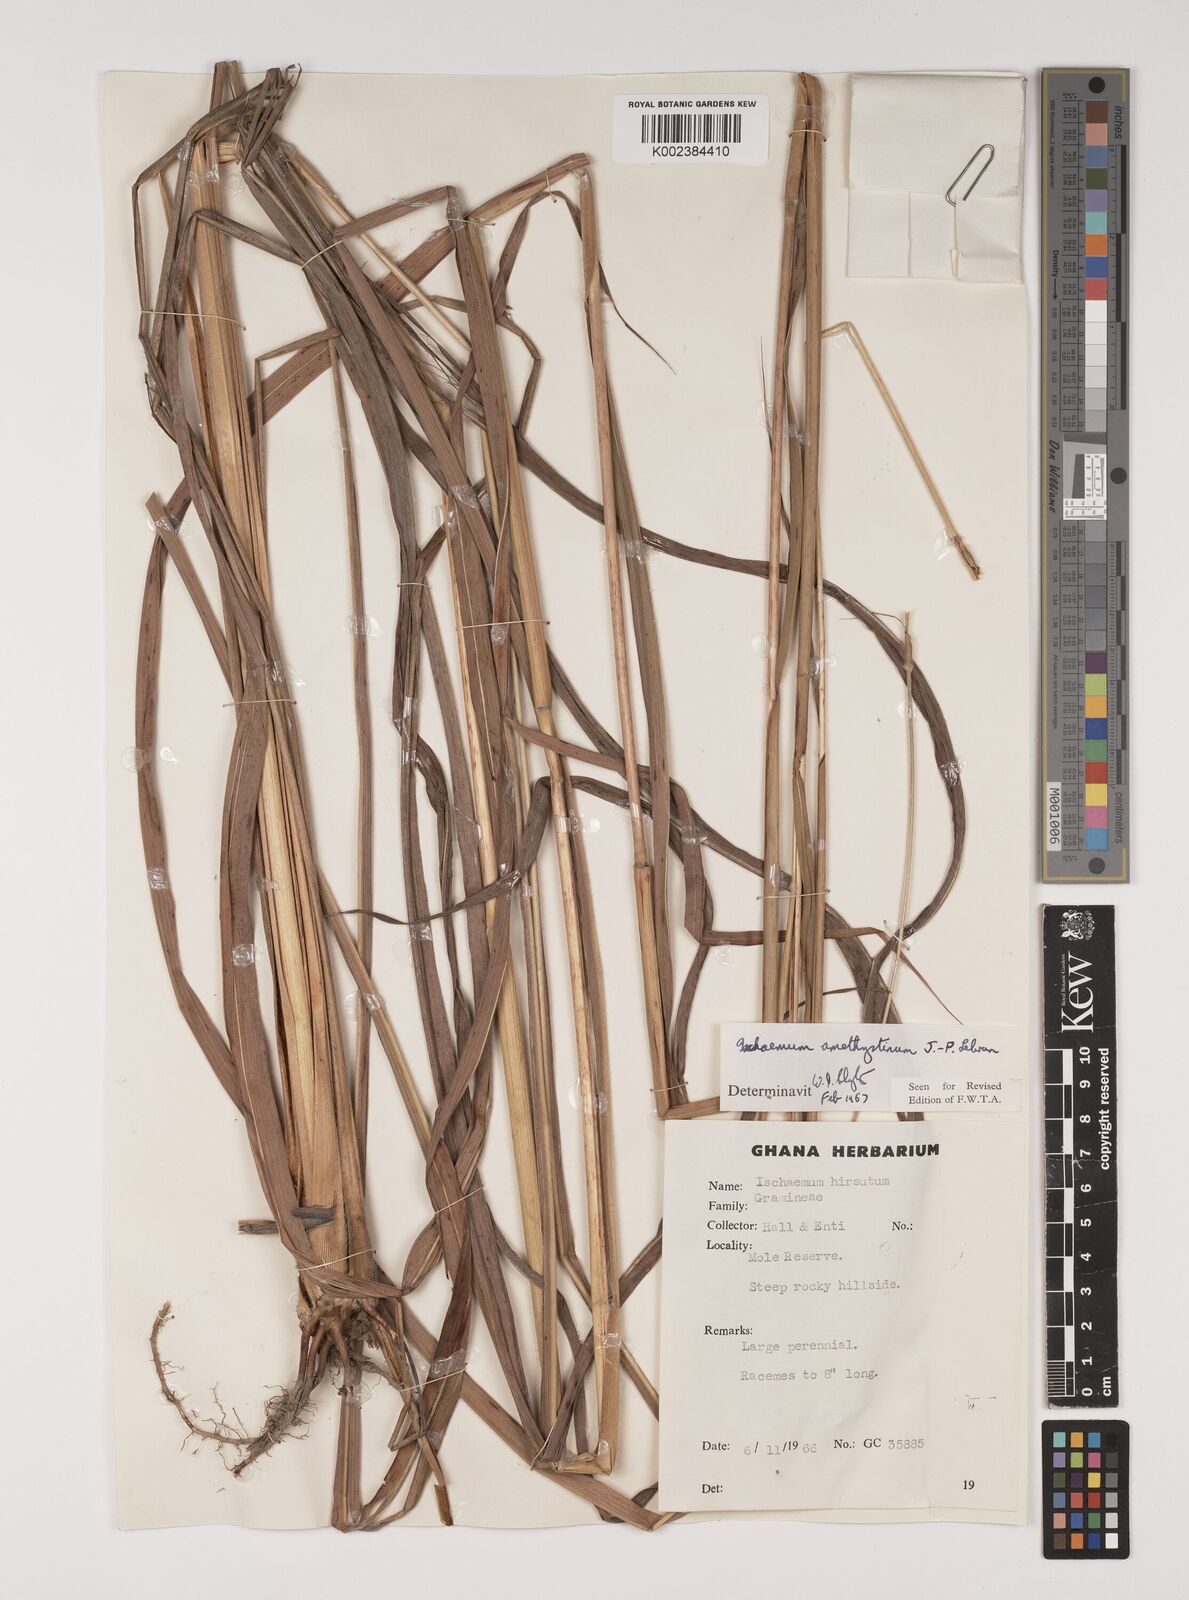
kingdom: Plantae
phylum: Tracheophyta
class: Liliopsida
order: Poales
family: Poaceae
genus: Rottboellia
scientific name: Rottboellia villosa
